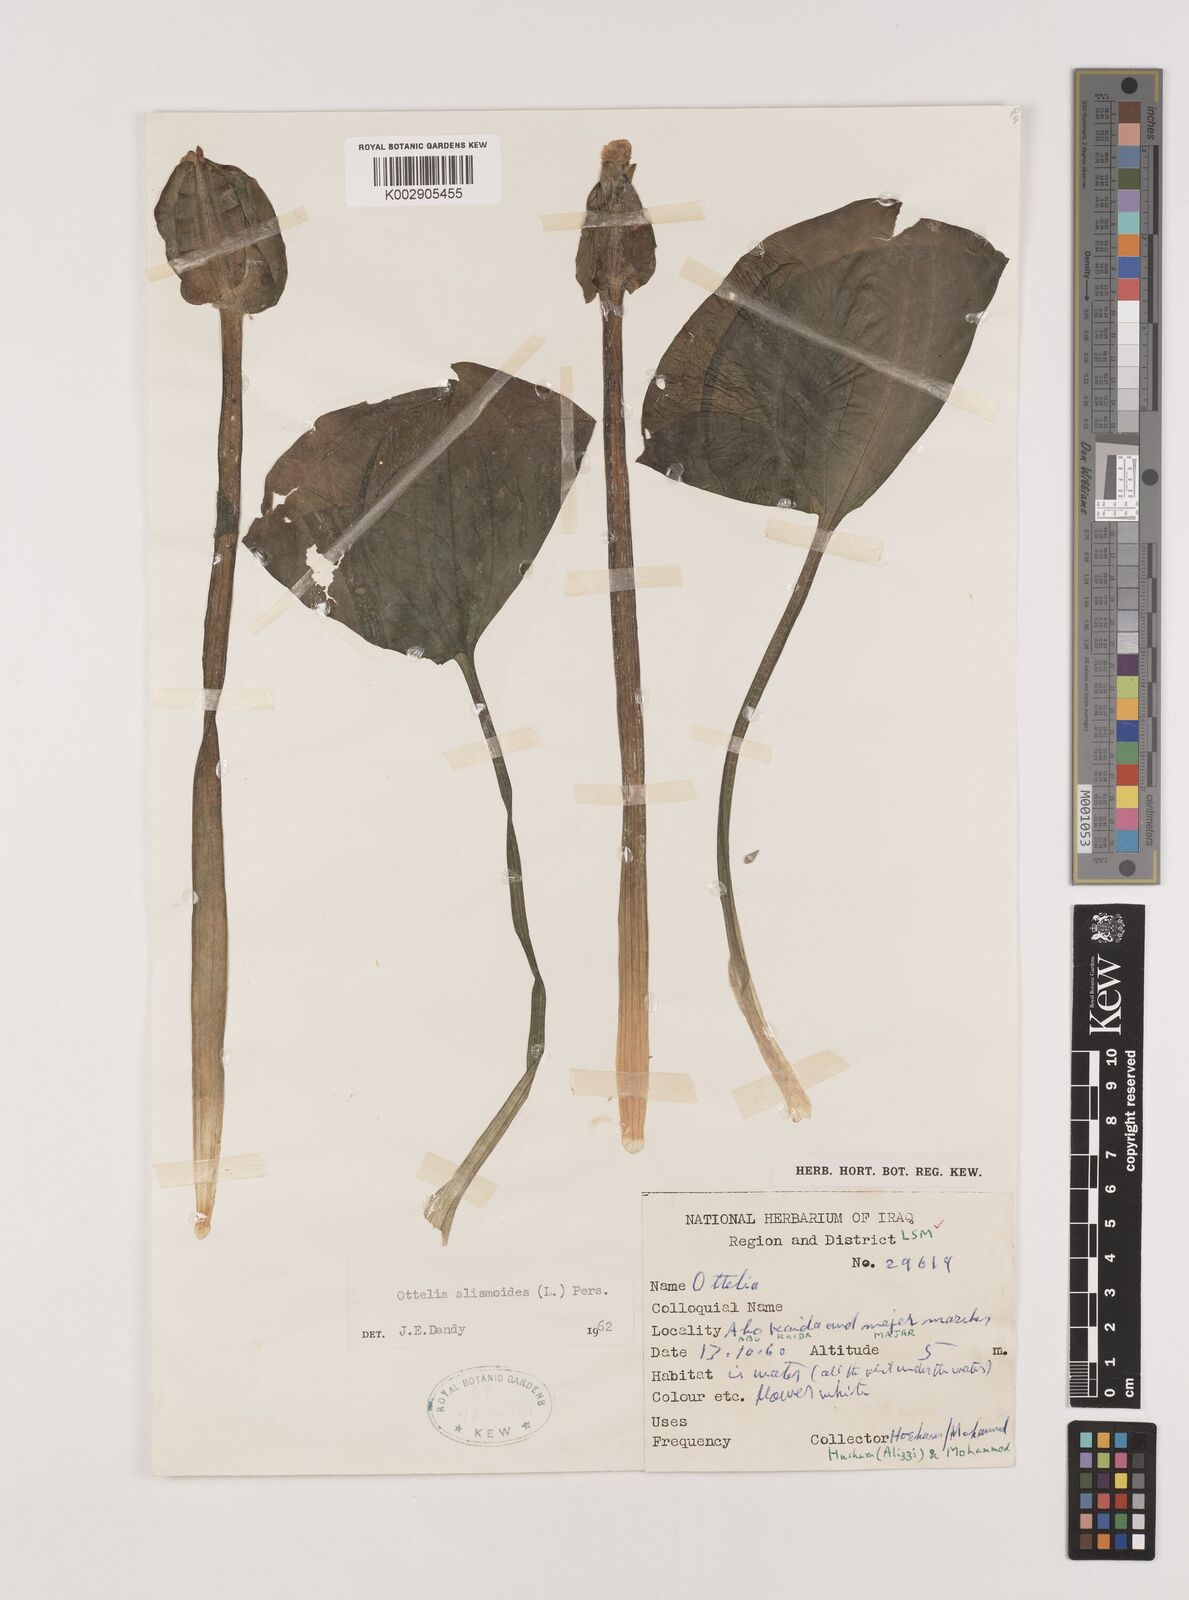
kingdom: Plantae
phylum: Tracheophyta
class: Liliopsida
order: Alismatales
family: Hydrocharitaceae
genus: Ottelia
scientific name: Ottelia alismoides
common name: Duck-lettuce
